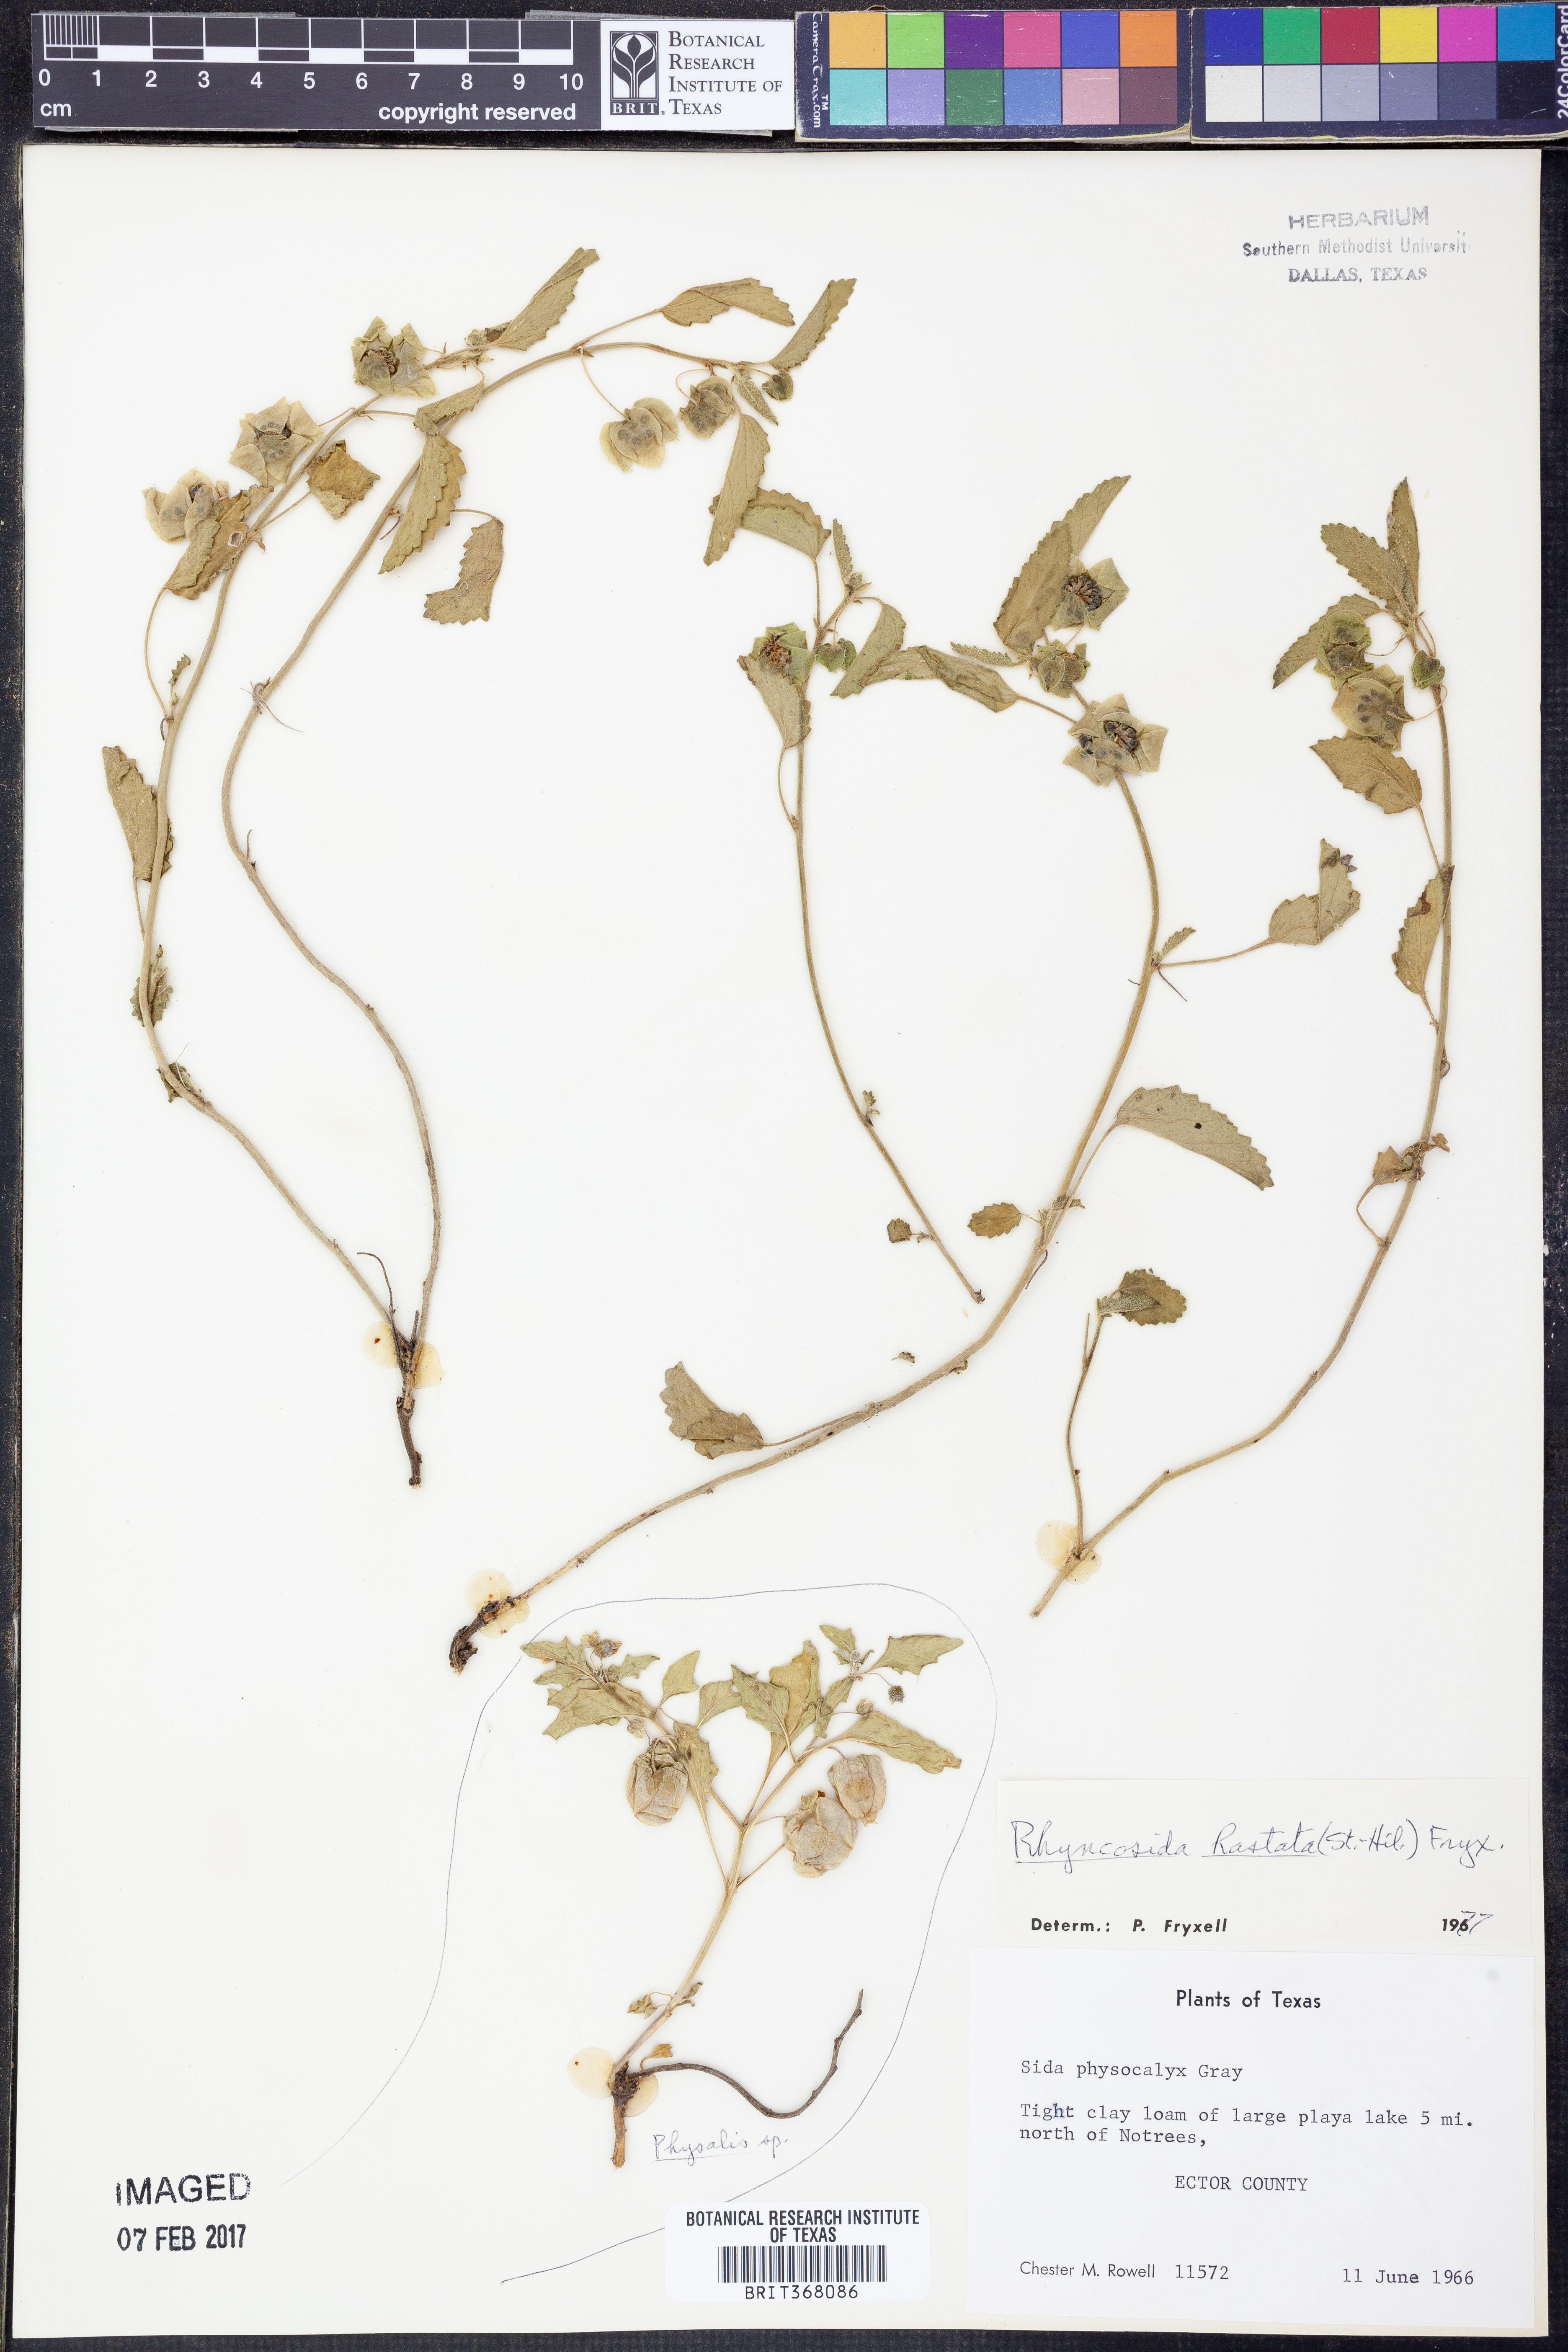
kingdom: Plantae
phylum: Tracheophyta
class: Magnoliopsida
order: Malvales
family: Malvaceae
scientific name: Malvaceae
